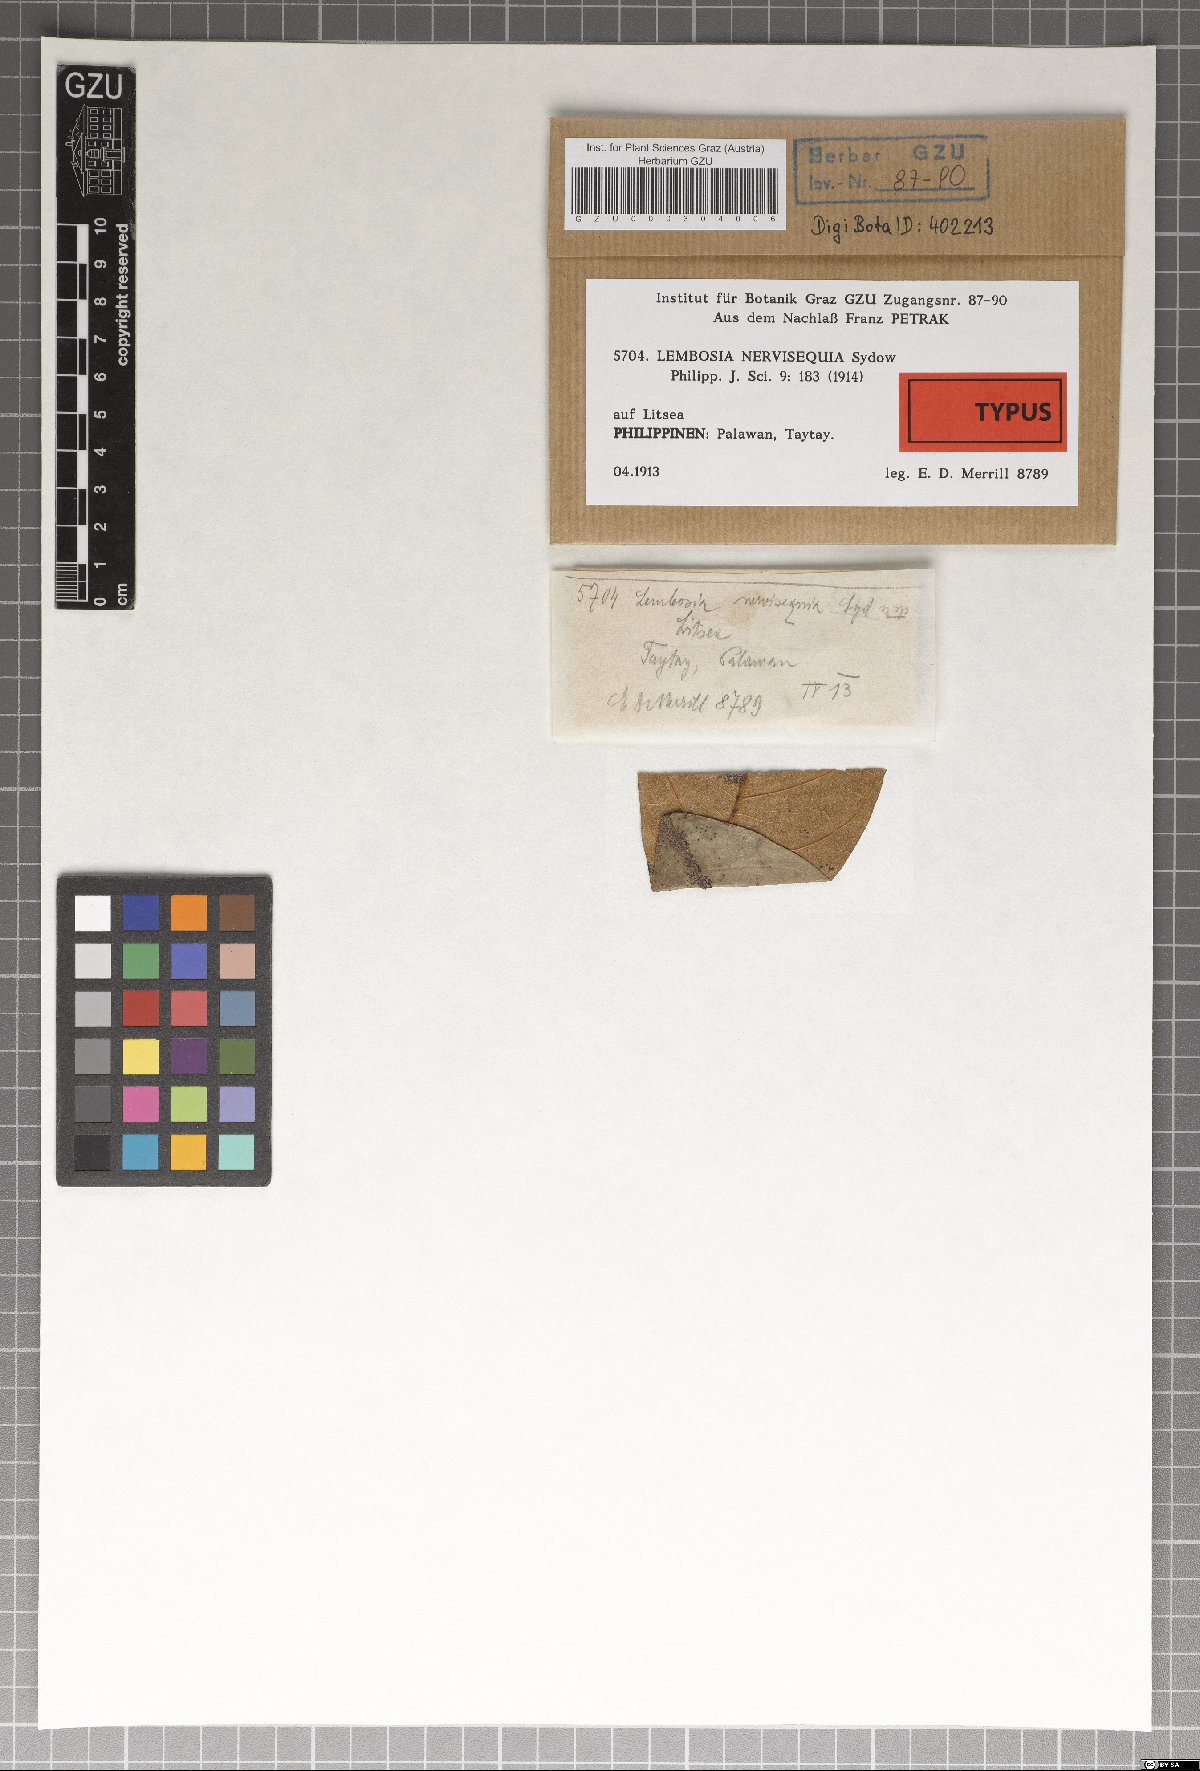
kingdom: Fungi
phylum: Ascomycota
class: Dothideomycetes
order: Asterinales
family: Asterinaceae
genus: Lembosia
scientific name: Lembosia nervisequia
